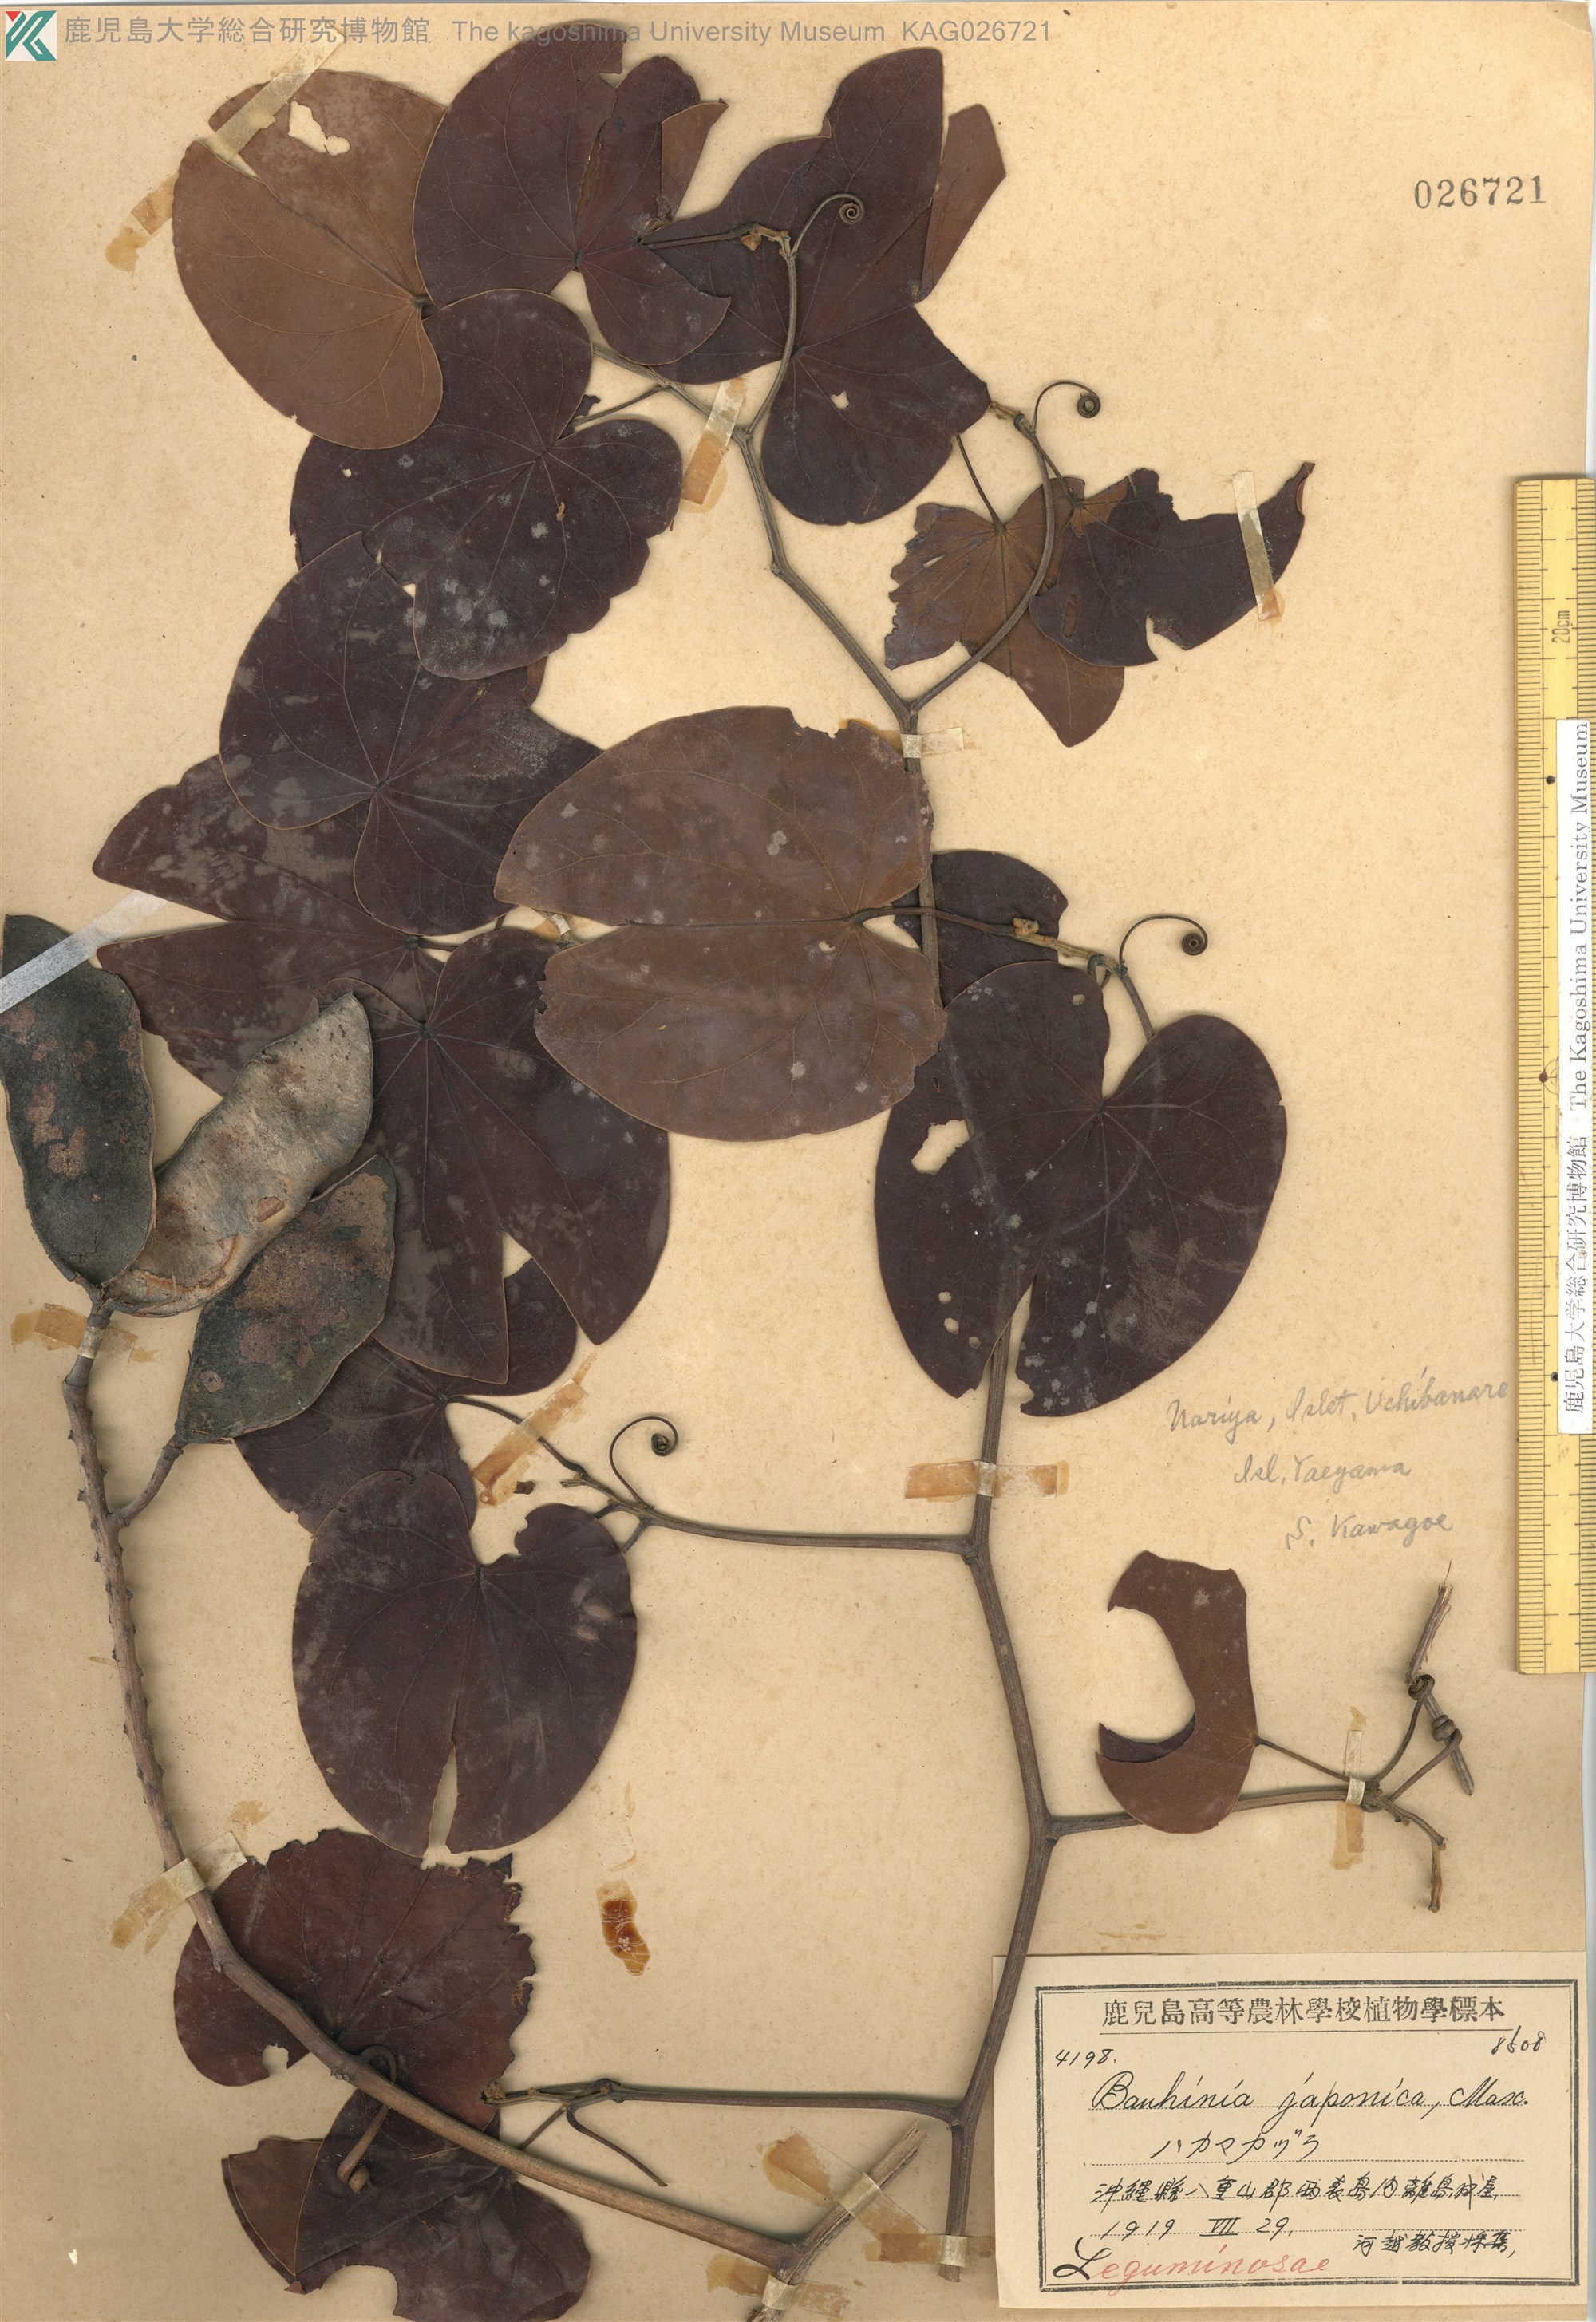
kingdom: Plantae
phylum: Tracheophyta
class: Magnoliopsida
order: Fabales
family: Fabaceae
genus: Phanera
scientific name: Phanera japonica
